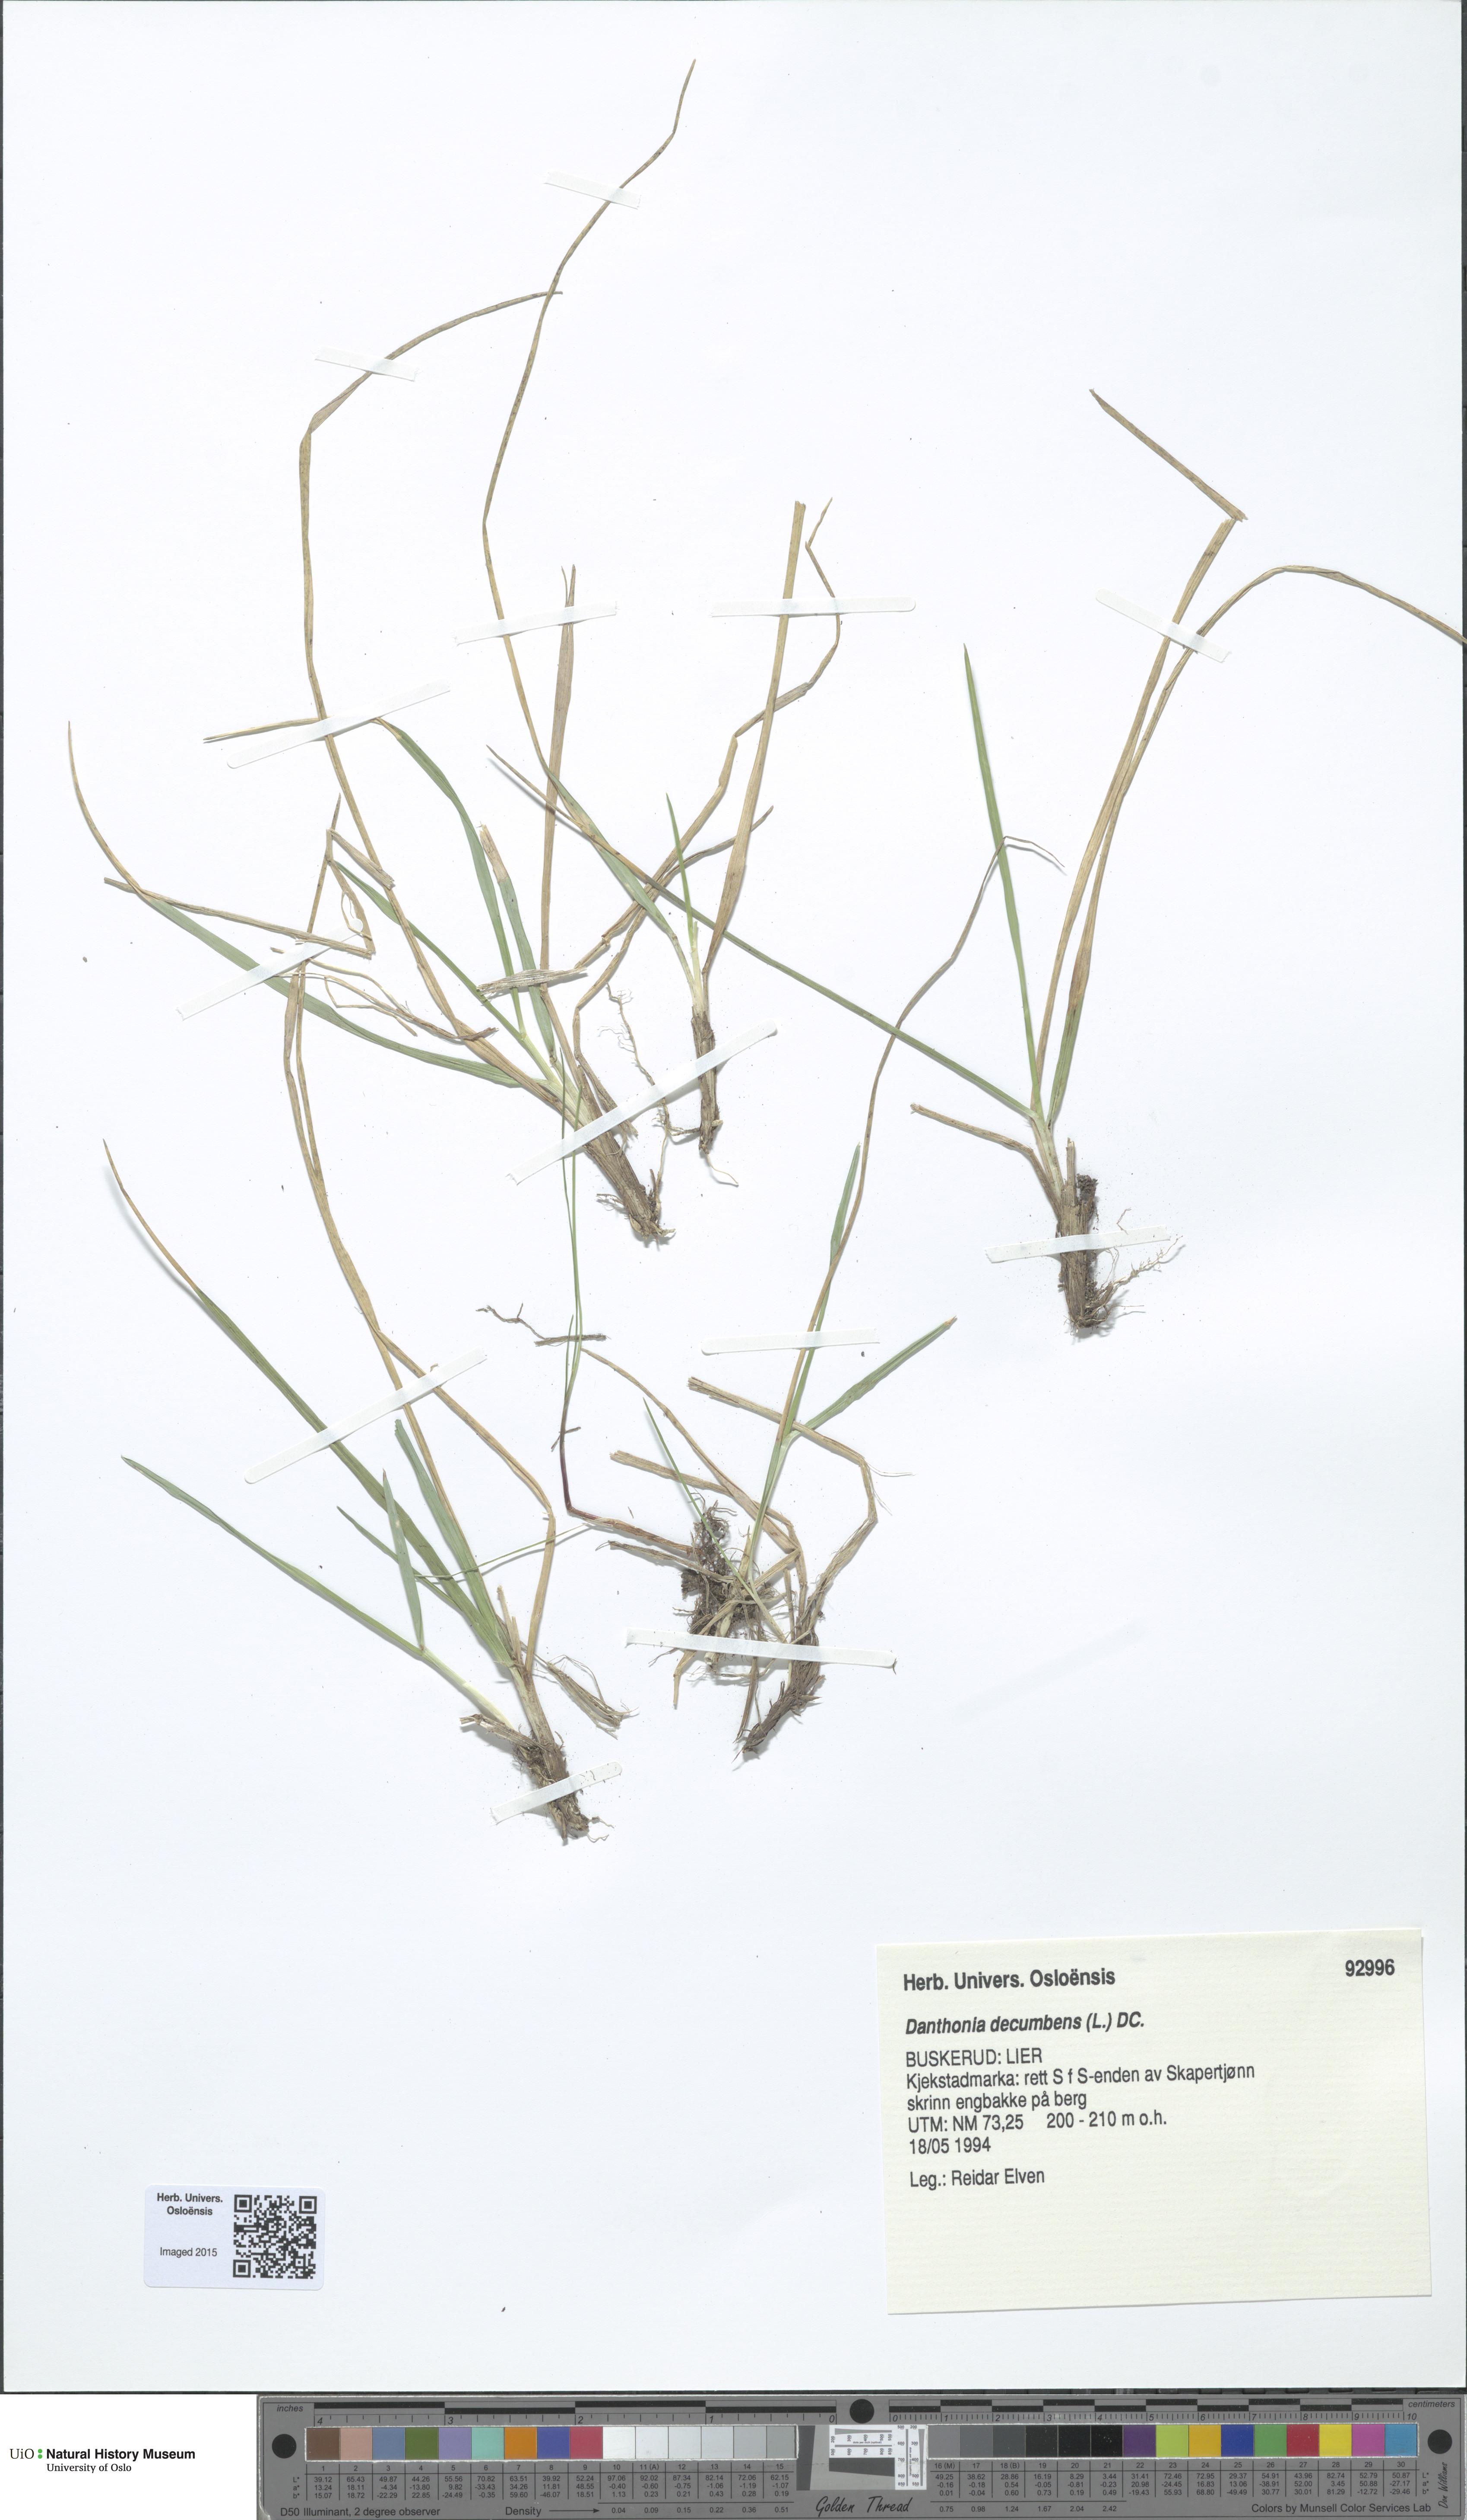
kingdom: Plantae
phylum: Tracheophyta
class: Liliopsida
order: Poales
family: Poaceae
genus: Danthonia
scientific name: Danthonia decumbens
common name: Common heathgrass
